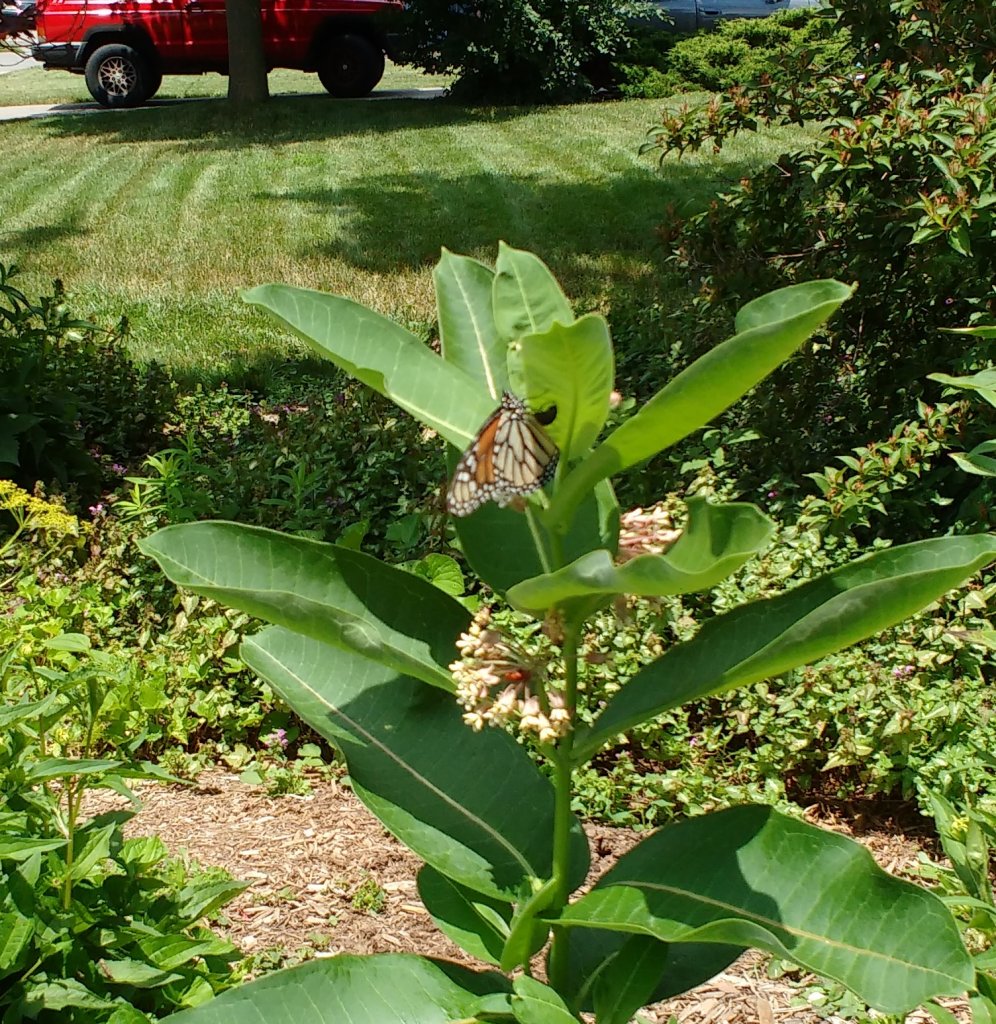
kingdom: Animalia
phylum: Arthropoda
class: Insecta
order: Lepidoptera
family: Nymphalidae
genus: Danaus
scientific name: Danaus plexippus
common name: Monarch
